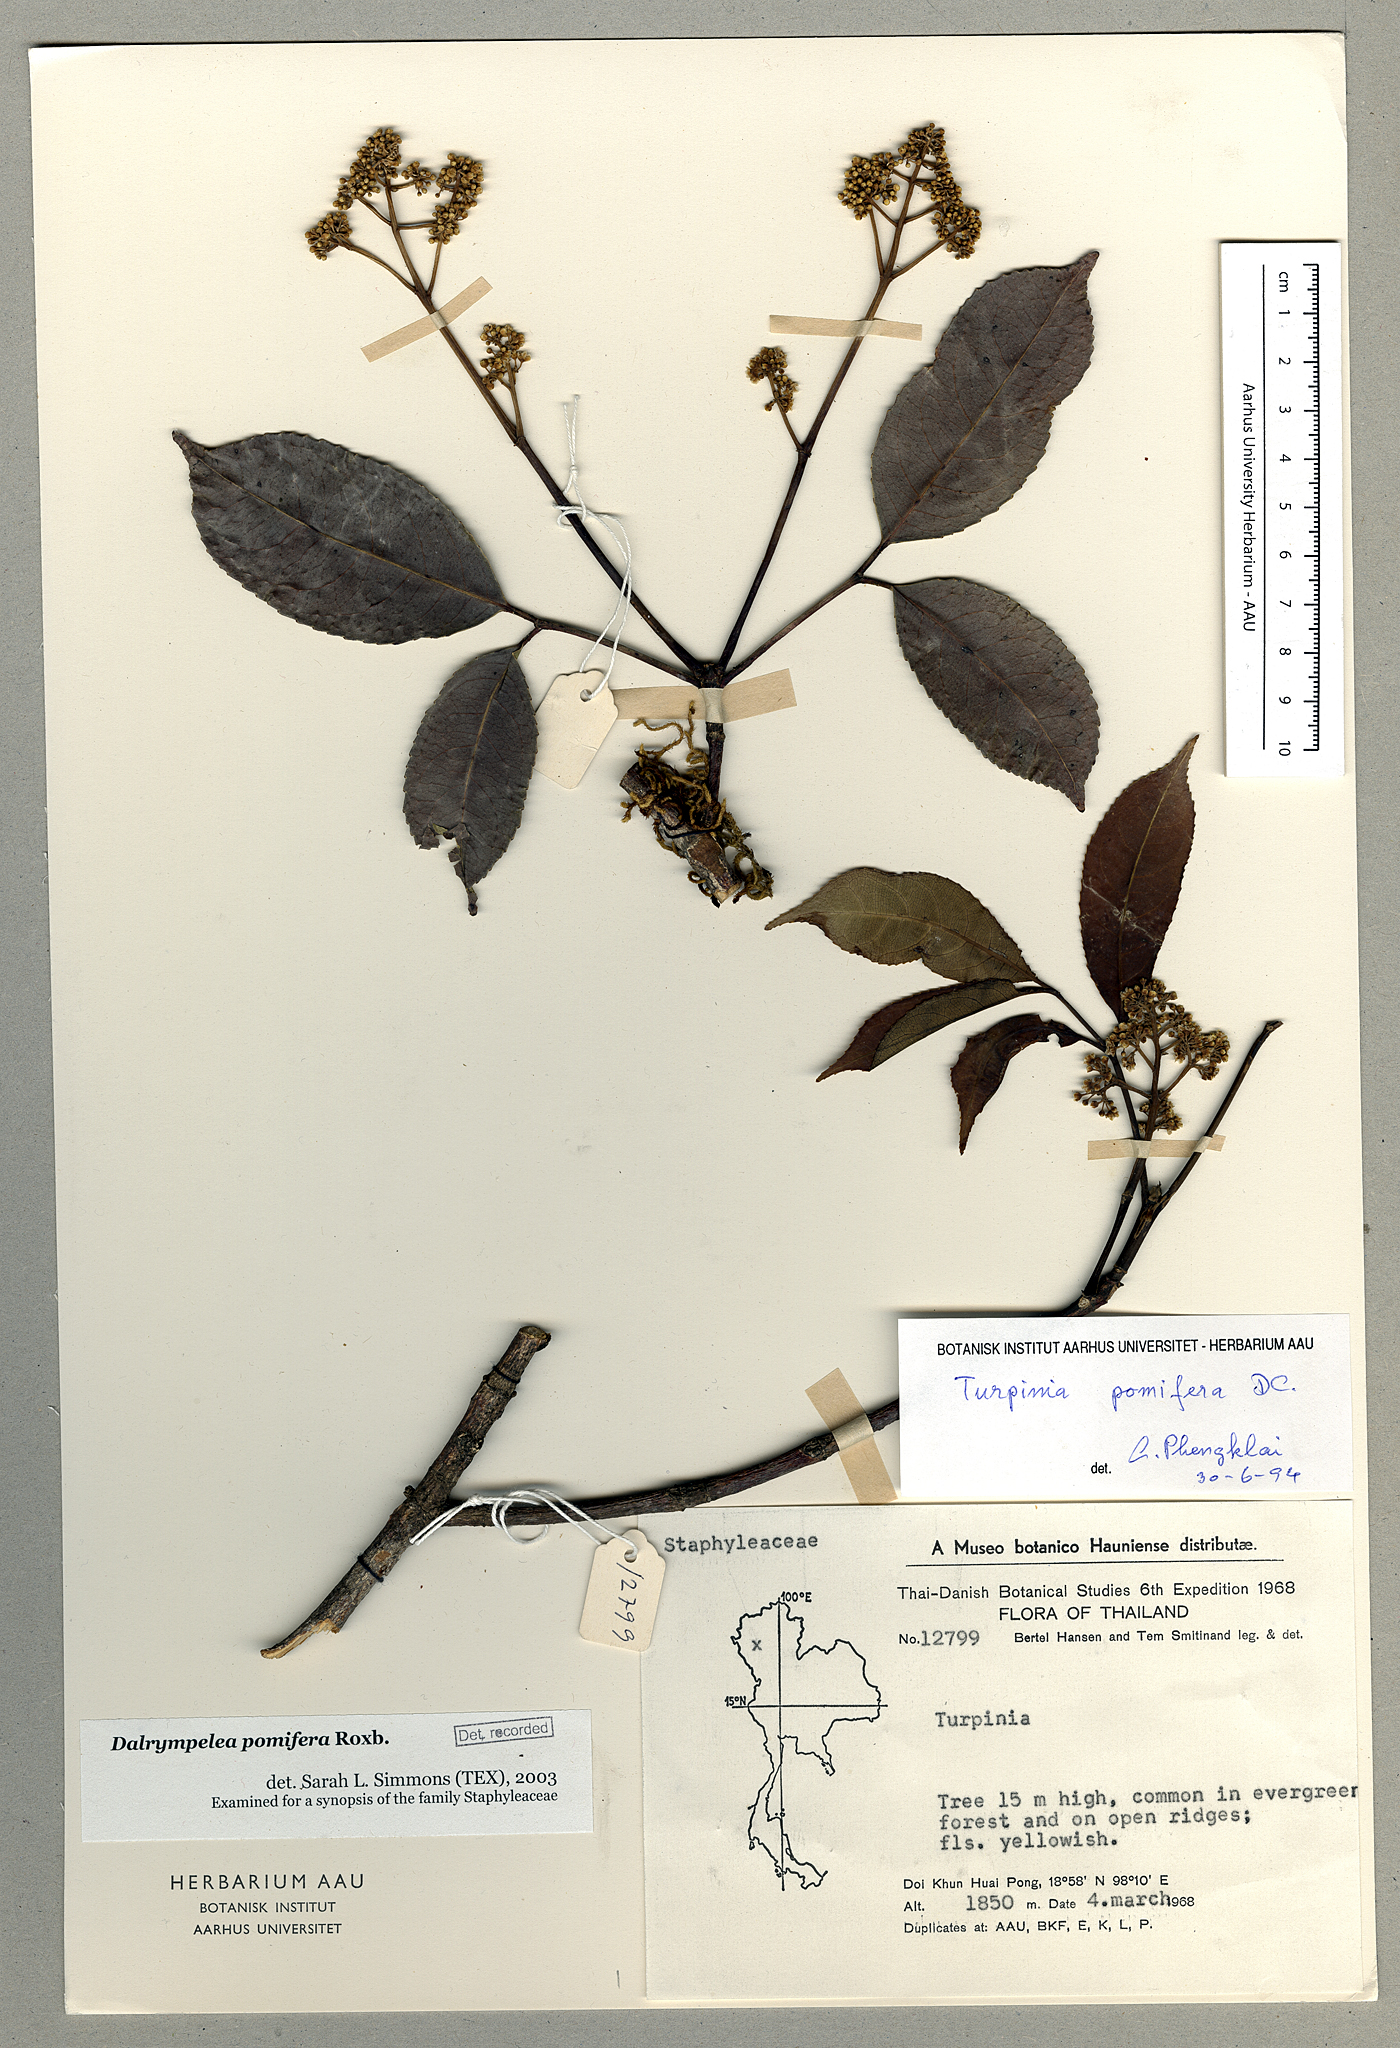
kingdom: Plantae
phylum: Tracheophyta
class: Magnoliopsida
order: Crossosomatales
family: Staphyleaceae
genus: Turpinia
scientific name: Turpinia cochinchinensis
